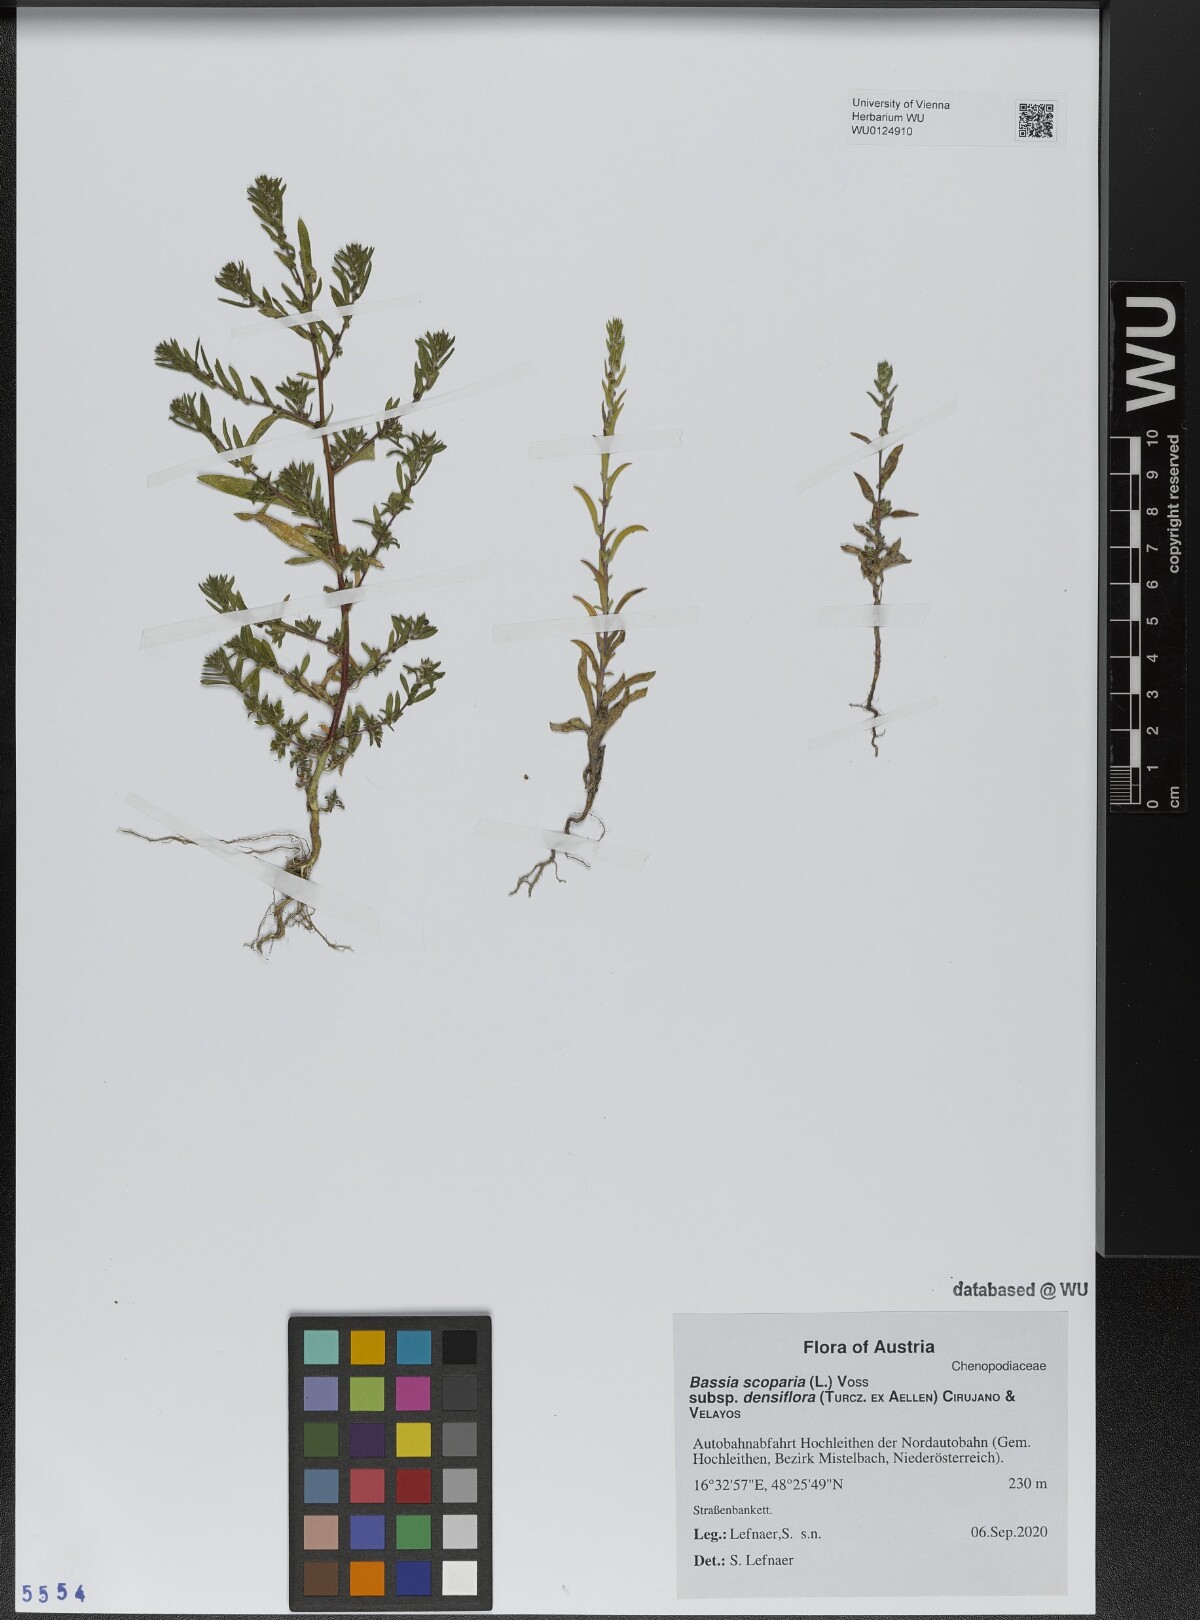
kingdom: Plantae
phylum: Tracheophyta
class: Magnoliopsida
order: Caryophyllales
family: Amaranthaceae
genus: Bassia
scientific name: Bassia scoparia
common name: Belvedere
